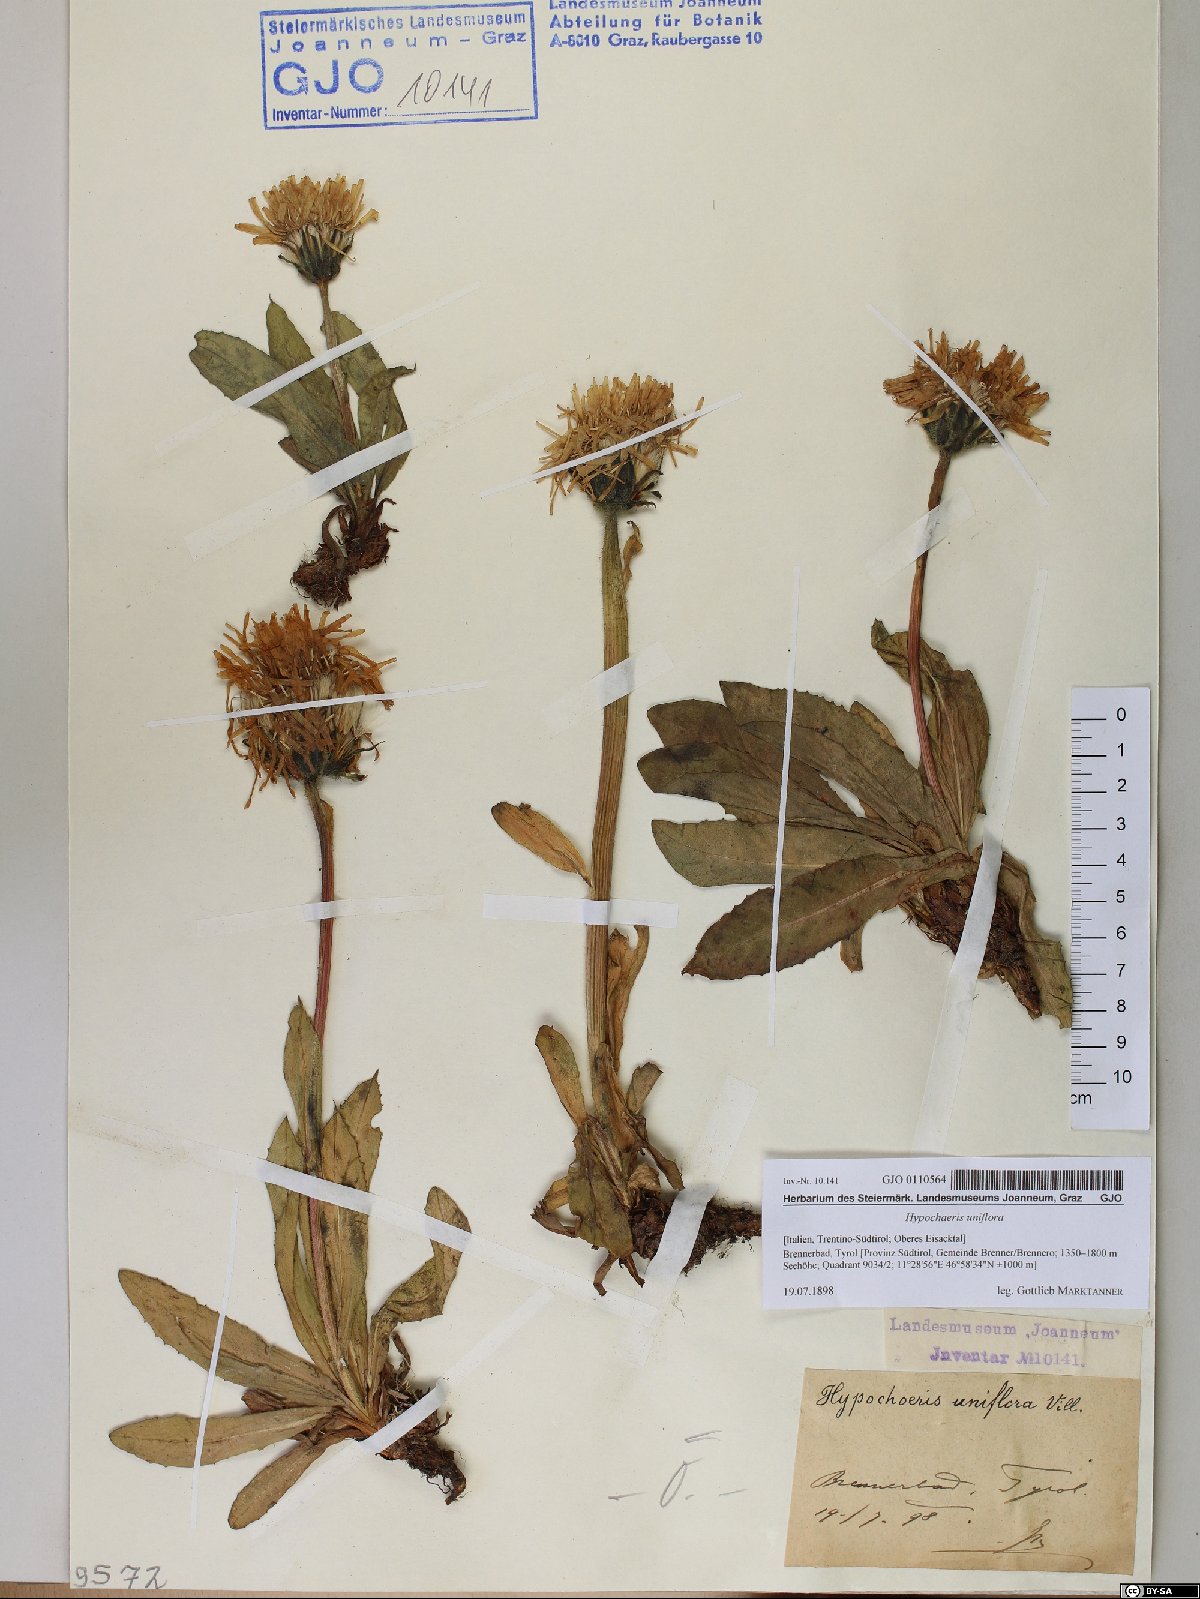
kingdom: Plantae
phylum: Tracheophyta
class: Magnoliopsida
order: Asterales
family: Asteraceae
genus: Trommsdorffia
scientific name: Trommsdorffia uniflora
